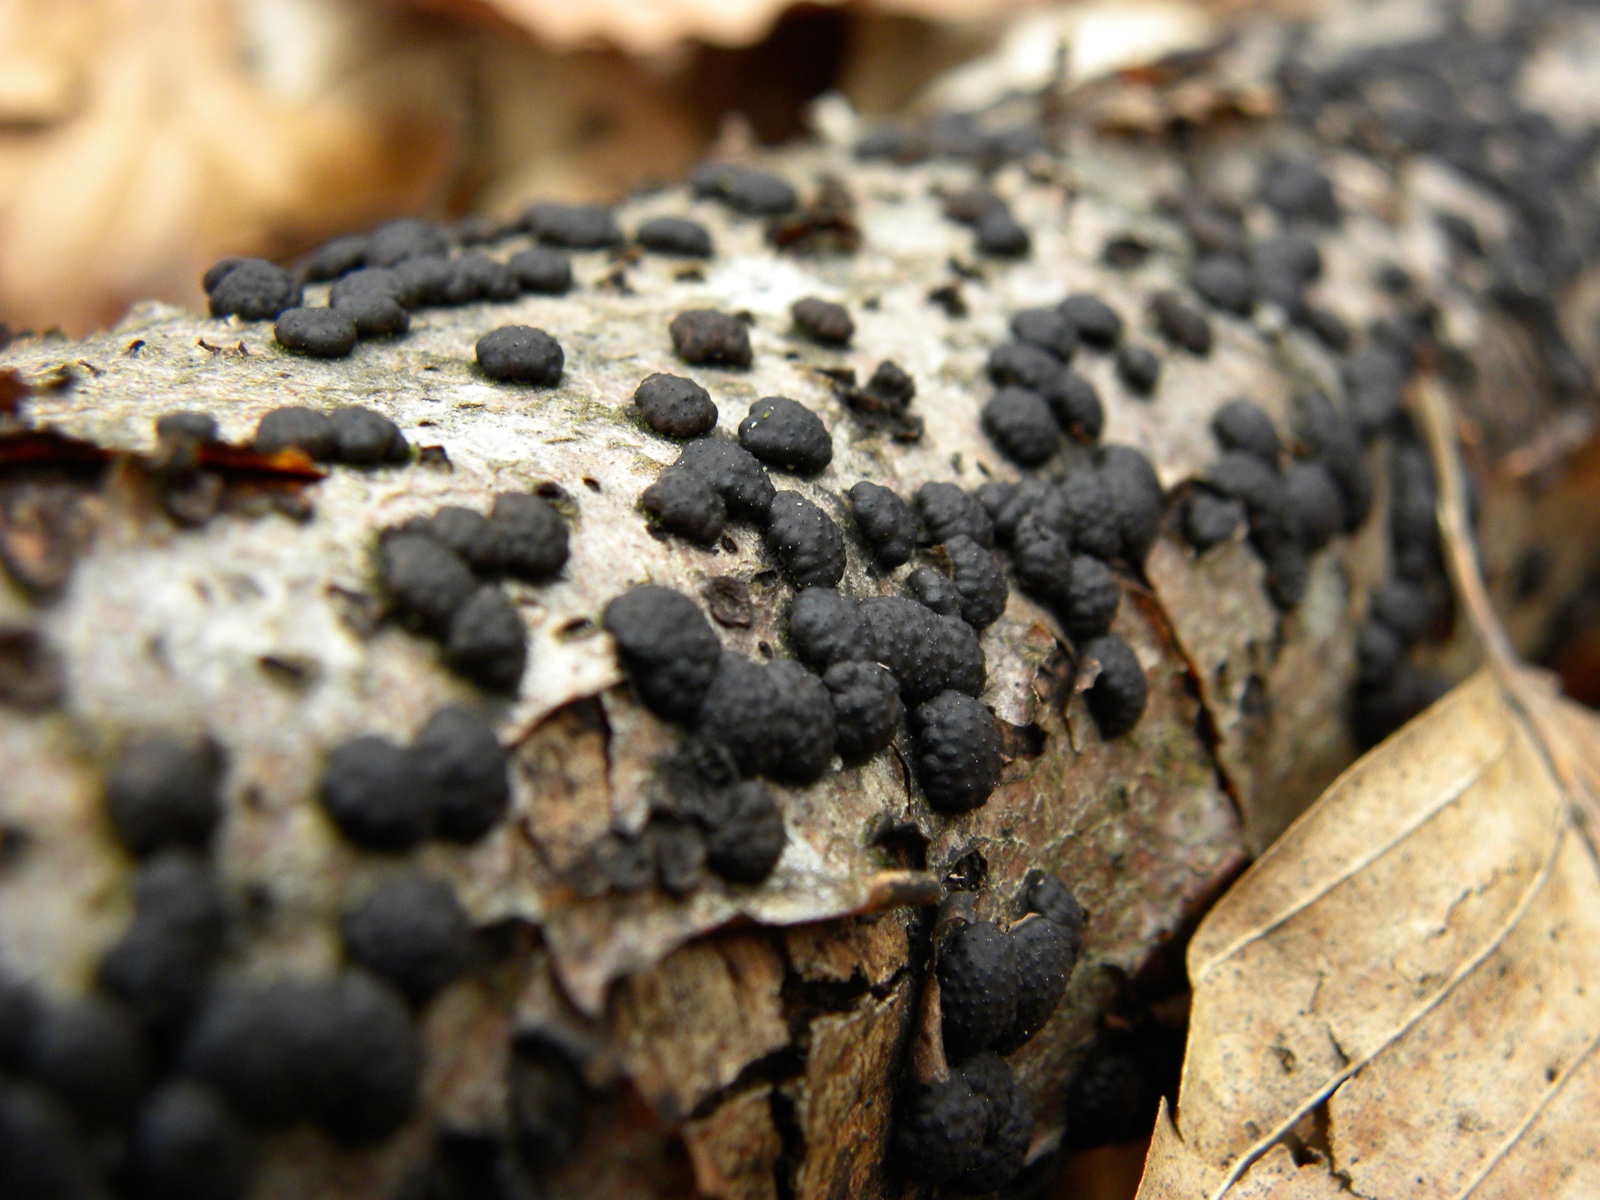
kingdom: Fungi
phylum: Ascomycota
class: Sordariomycetes
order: Xylariales
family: Hypoxylaceae
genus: Jackrogersella
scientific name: Jackrogersella cohaerens
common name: sammenflydende kulbær
